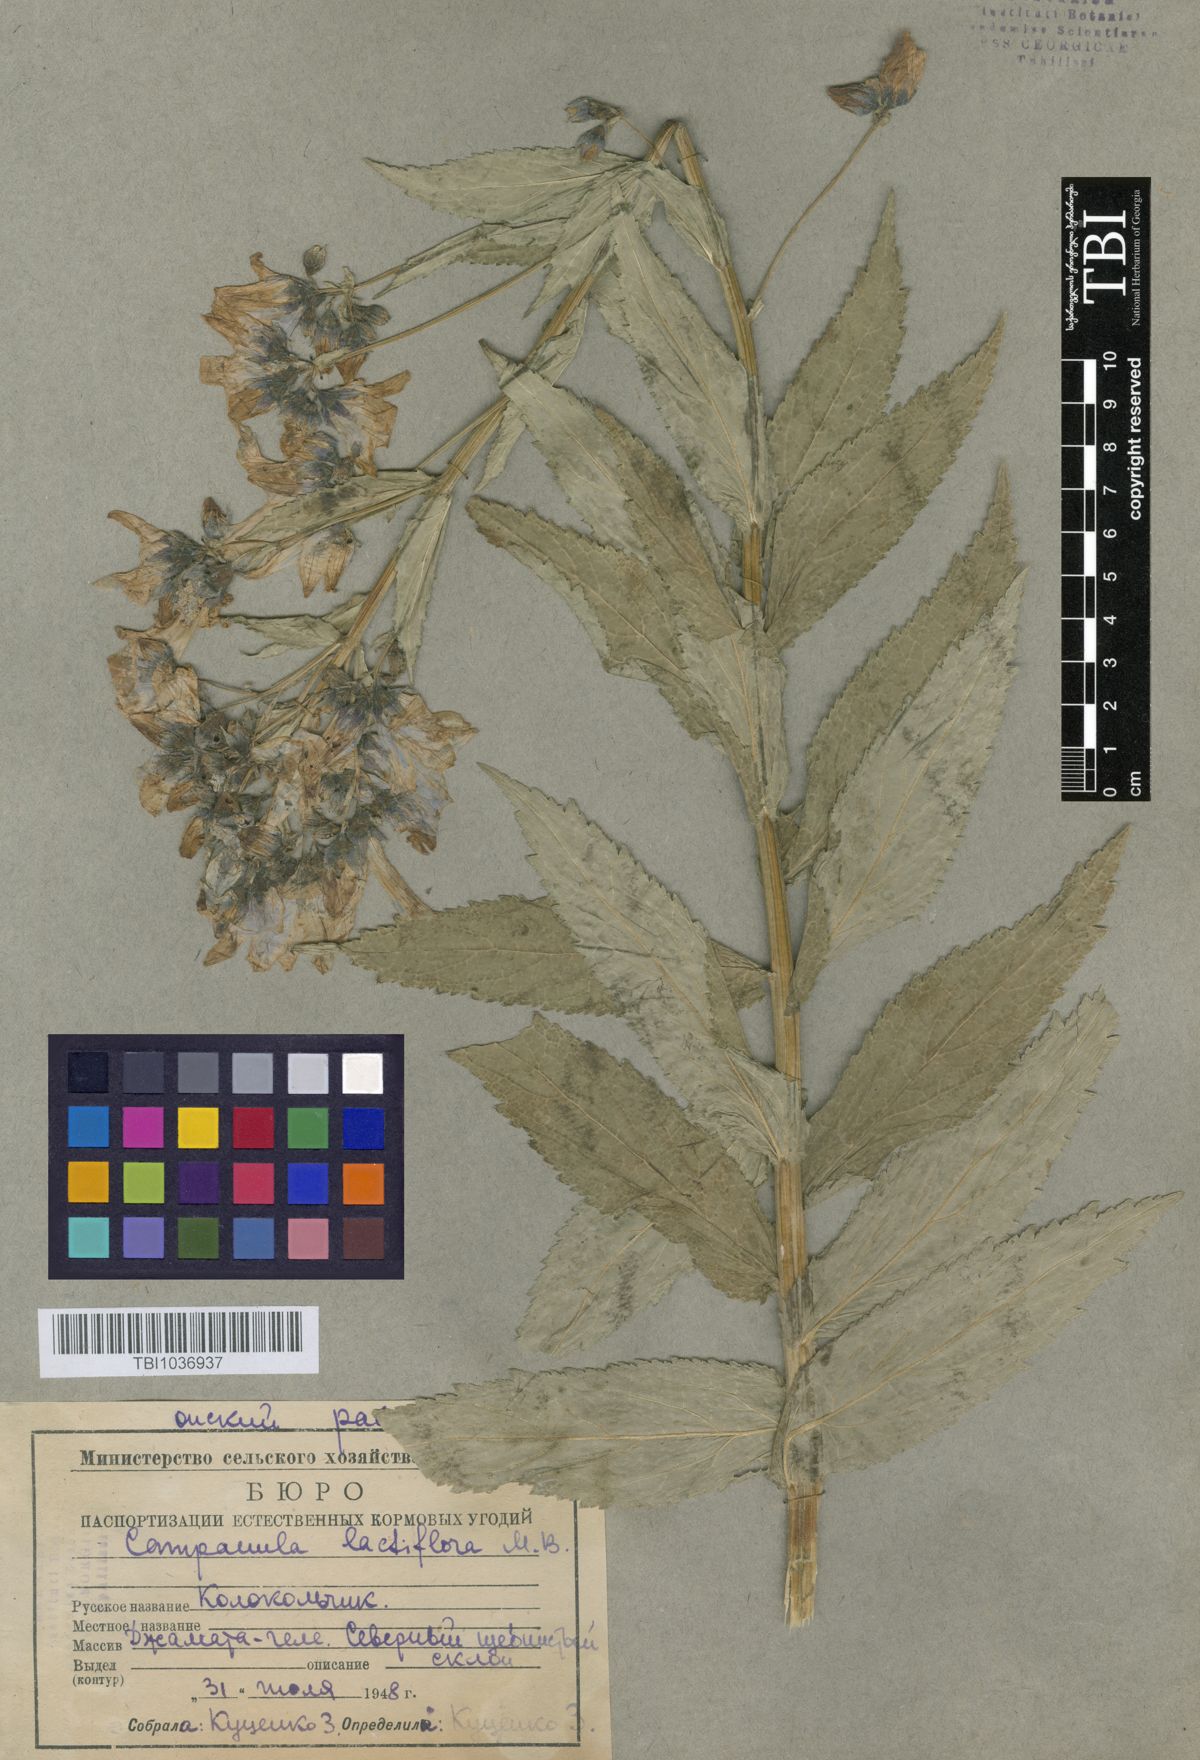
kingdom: Plantae
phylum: Tracheophyta
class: Magnoliopsida
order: Asterales
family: Campanulaceae
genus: Campanula
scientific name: Campanula lactiflora
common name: Milky bellflower
